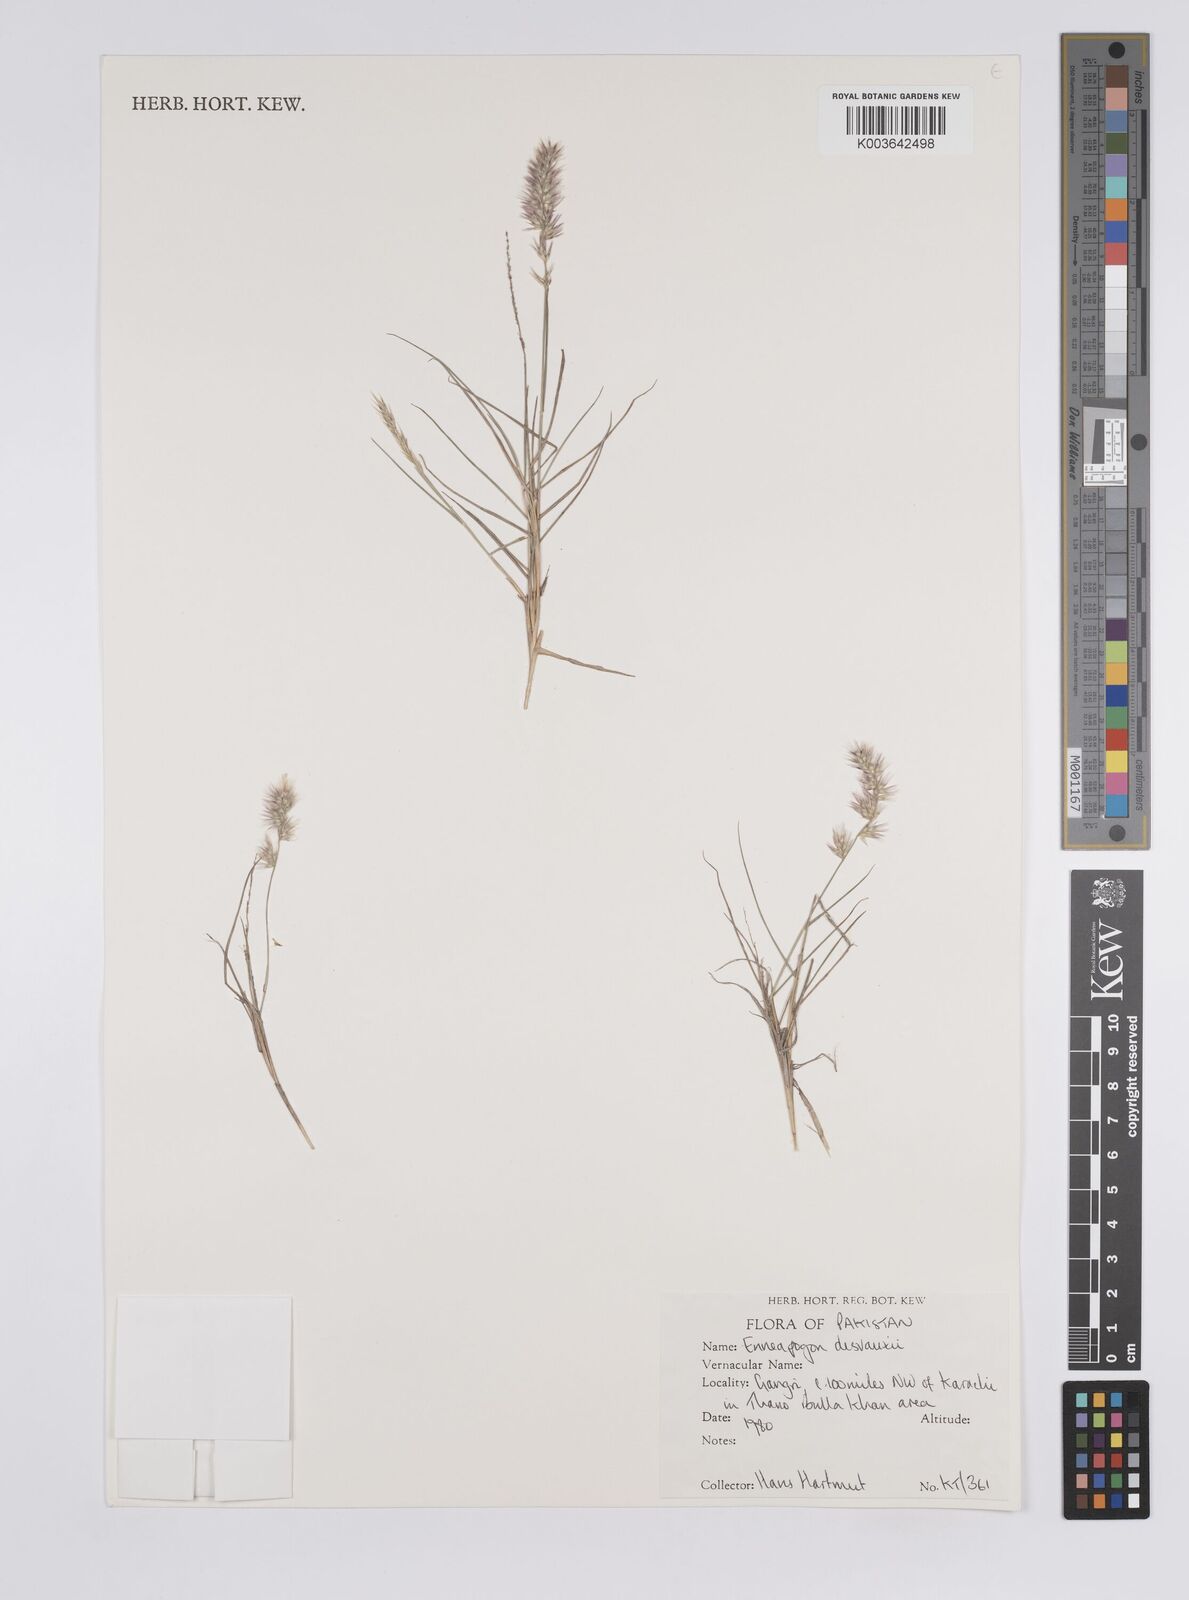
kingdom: Plantae
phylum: Tracheophyta
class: Liliopsida
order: Poales
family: Poaceae
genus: Enneapogon
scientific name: Enneapogon desvauxii
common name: Feather pappus grass
